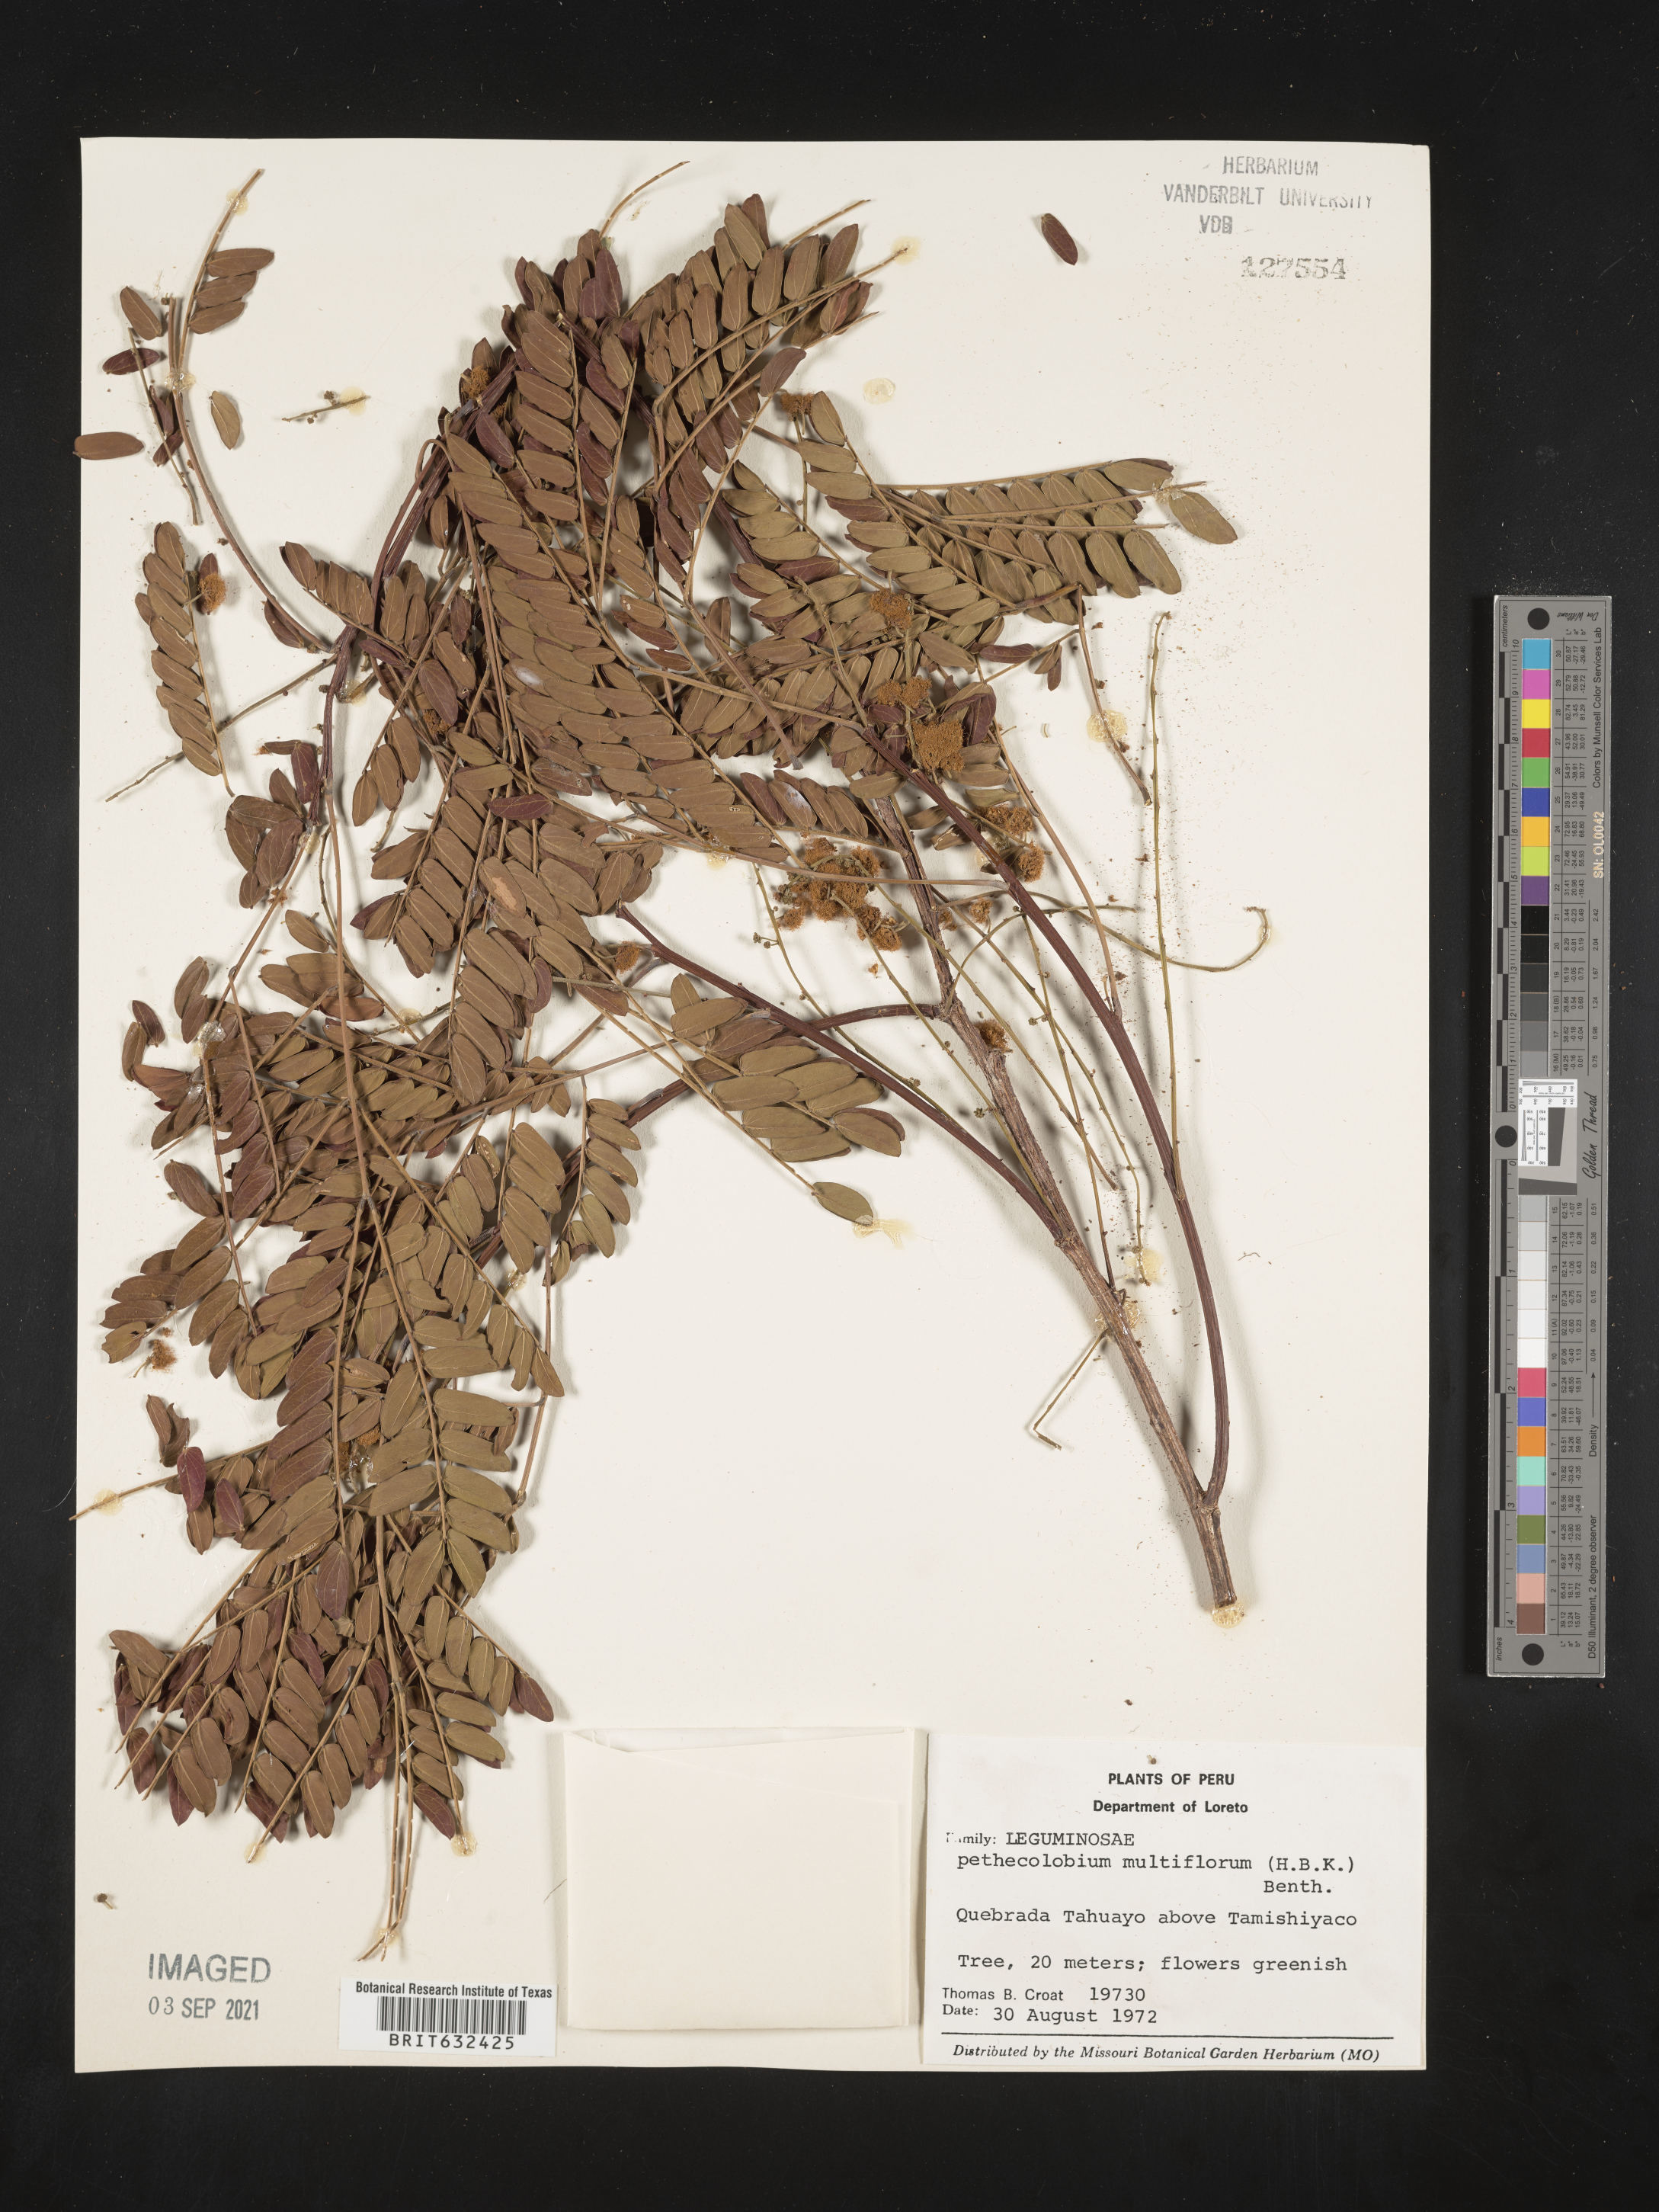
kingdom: Plantae
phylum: Tracheophyta
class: Magnoliopsida
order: Fabales
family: Fabaceae
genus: Pithecellobium
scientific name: Pithecellobium
